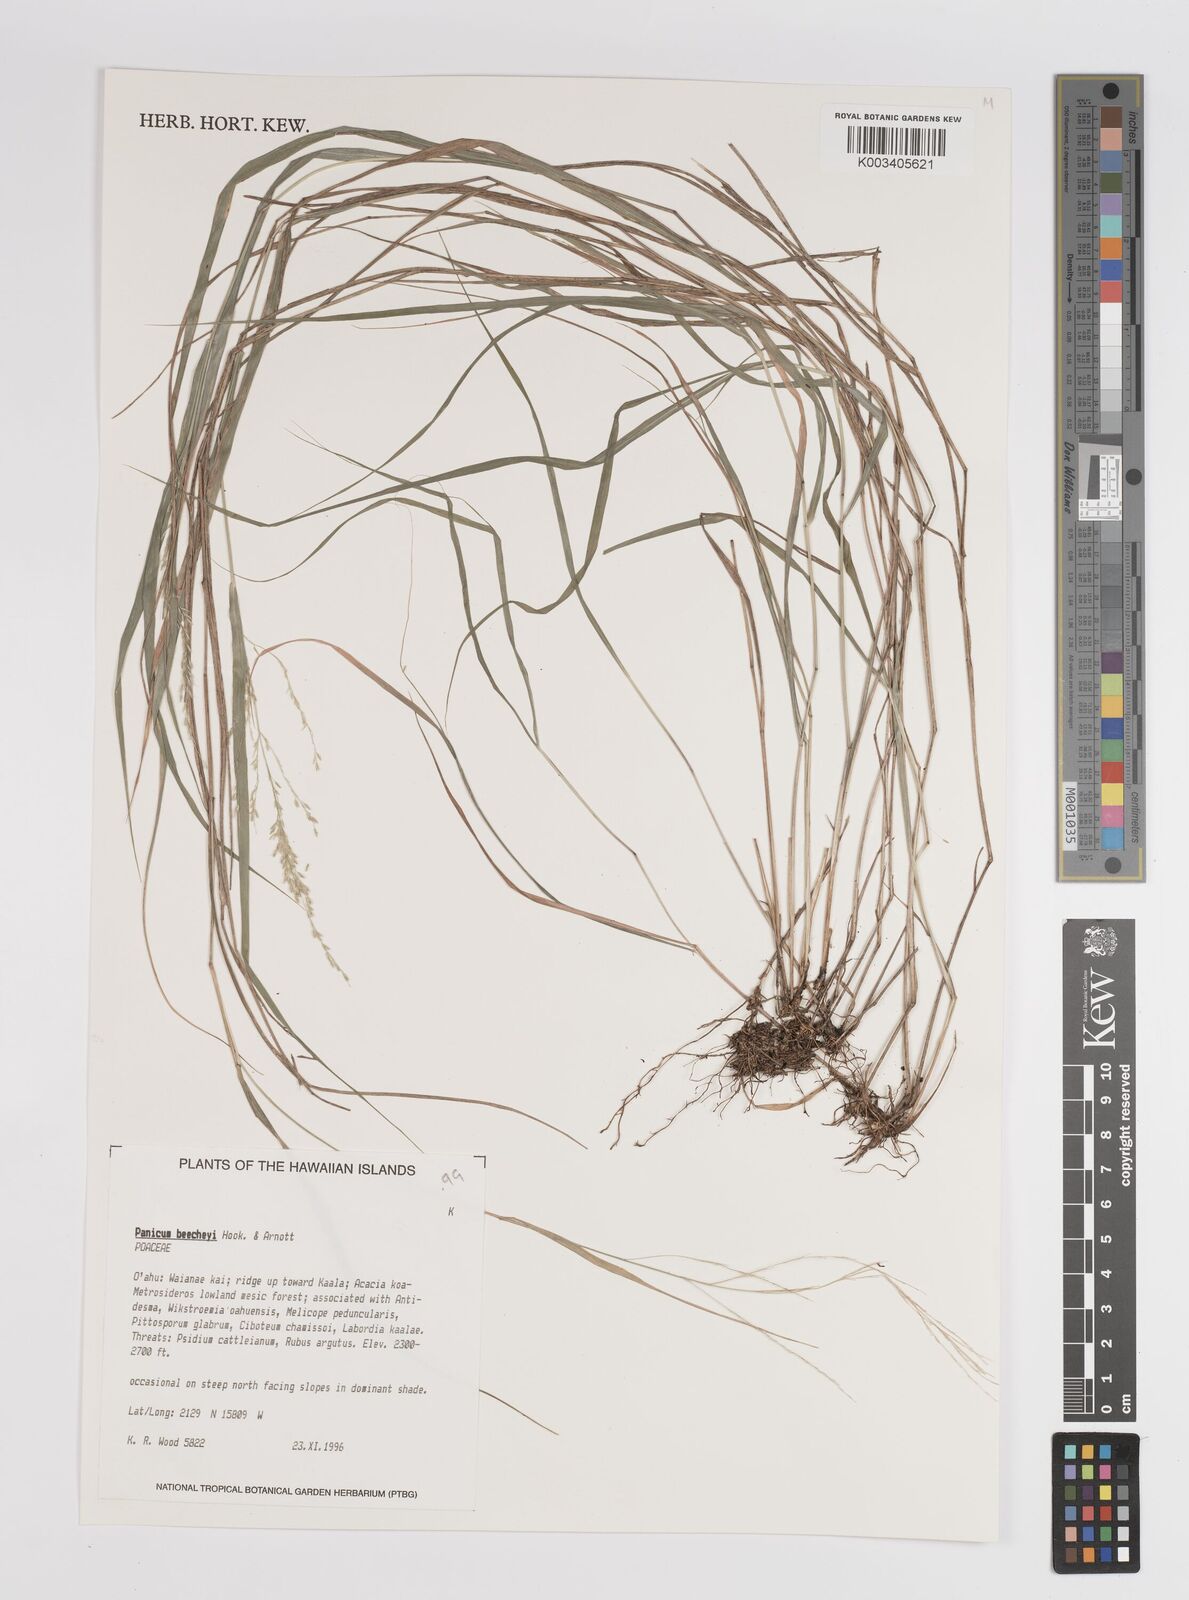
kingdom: Plantae
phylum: Tracheophyta
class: Liliopsida
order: Poales
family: Poaceae
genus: Panicum
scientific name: Panicum beecheyi
